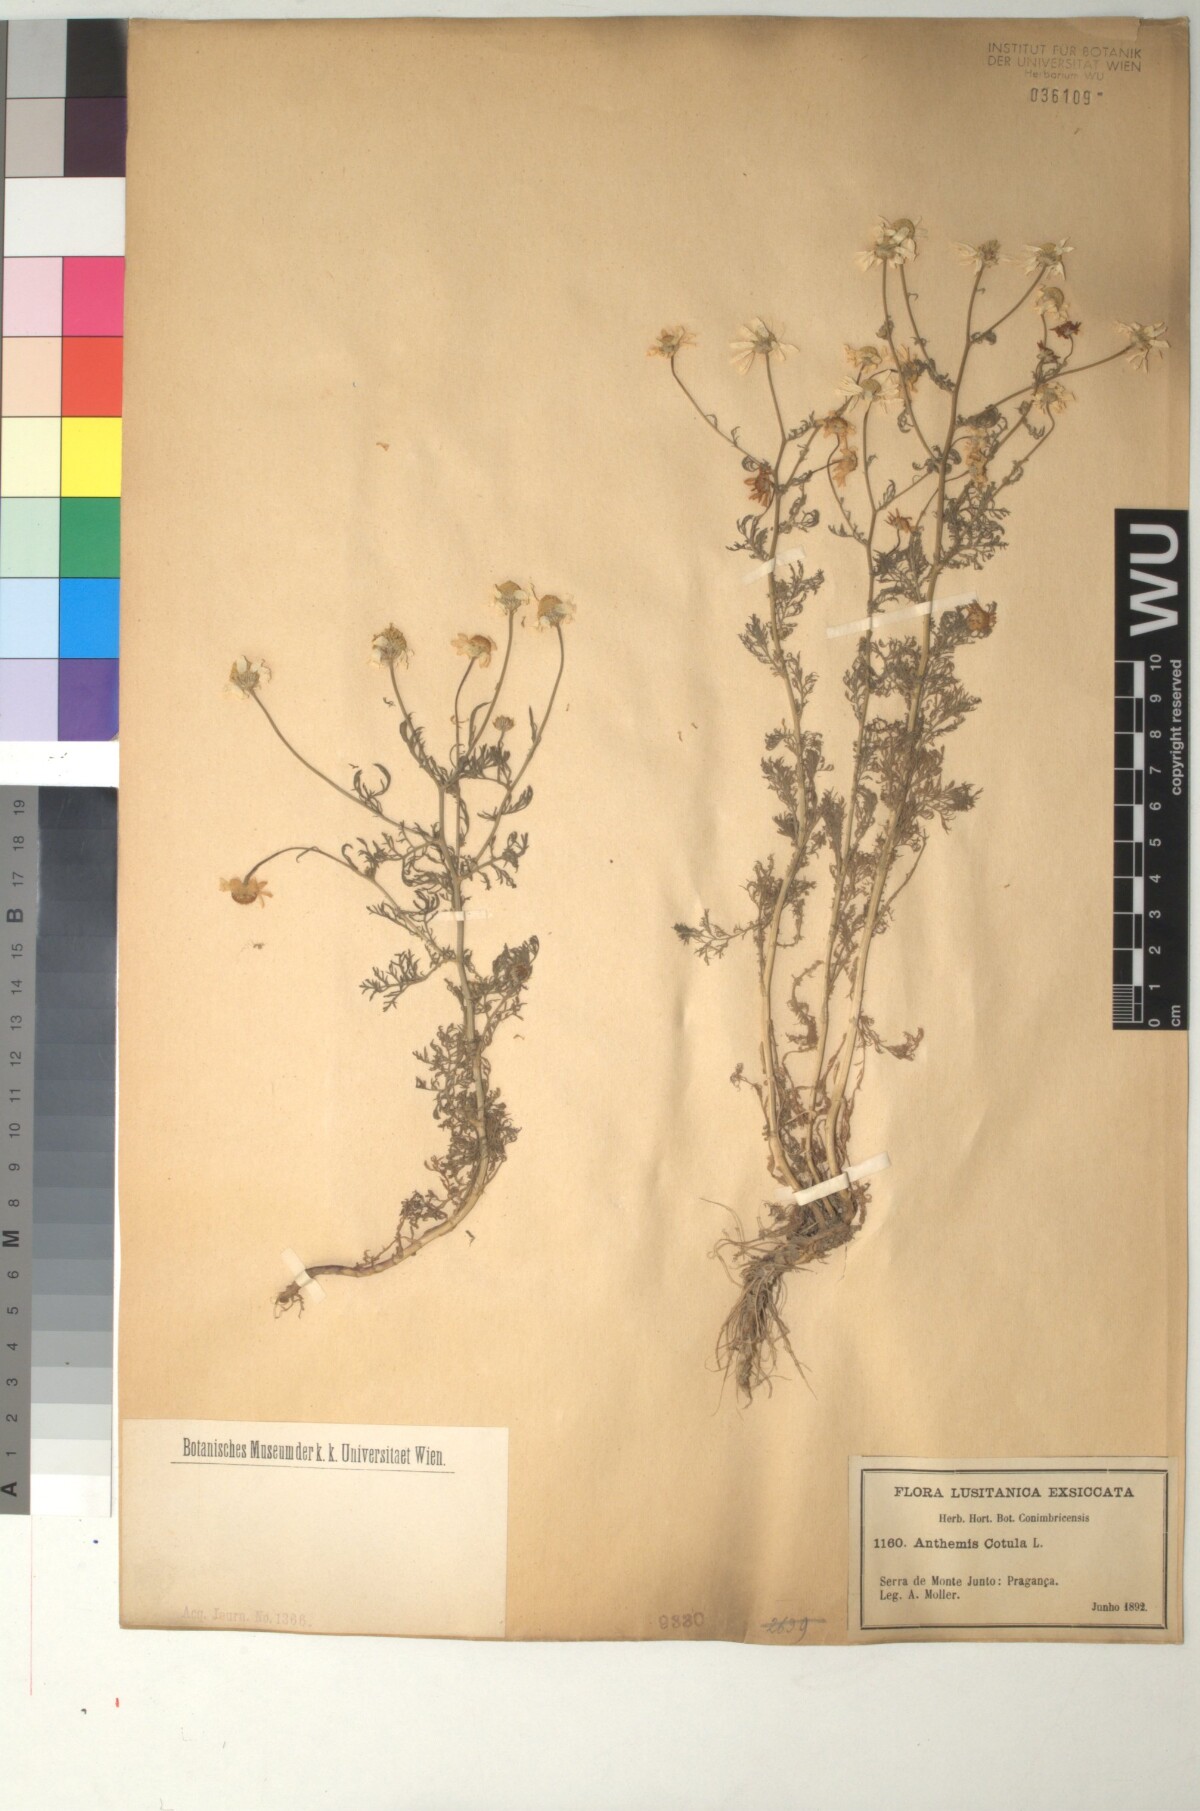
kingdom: Plantae
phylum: Tracheophyta
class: Magnoliopsida
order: Asterales
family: Asteraceae
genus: Anthemis
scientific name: Anthemis cotula
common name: Stinking chamomile
